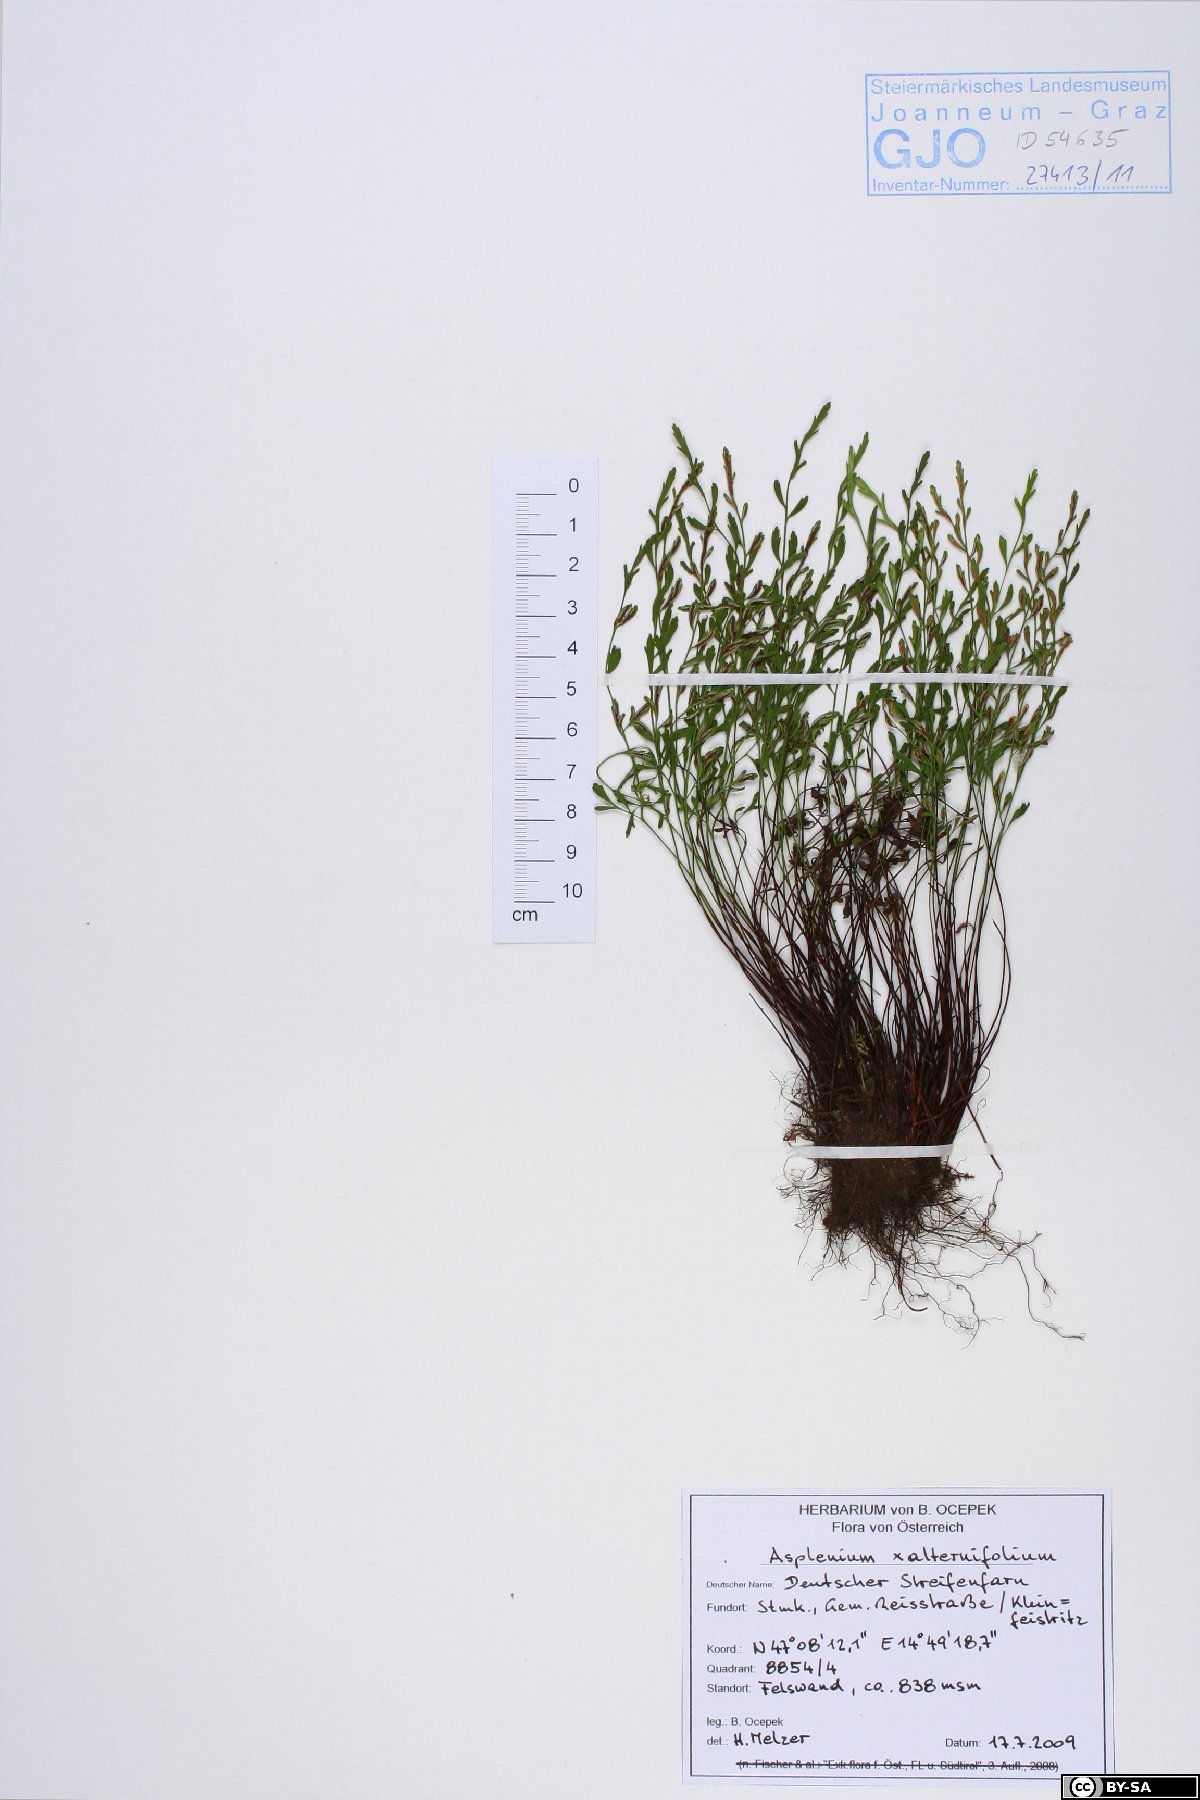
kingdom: Plantae
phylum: Tracheophyta
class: Polypodiopsida
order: Polypodiales
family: Aspleniaceae
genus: Asplenium
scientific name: Asplenium alternifolium
